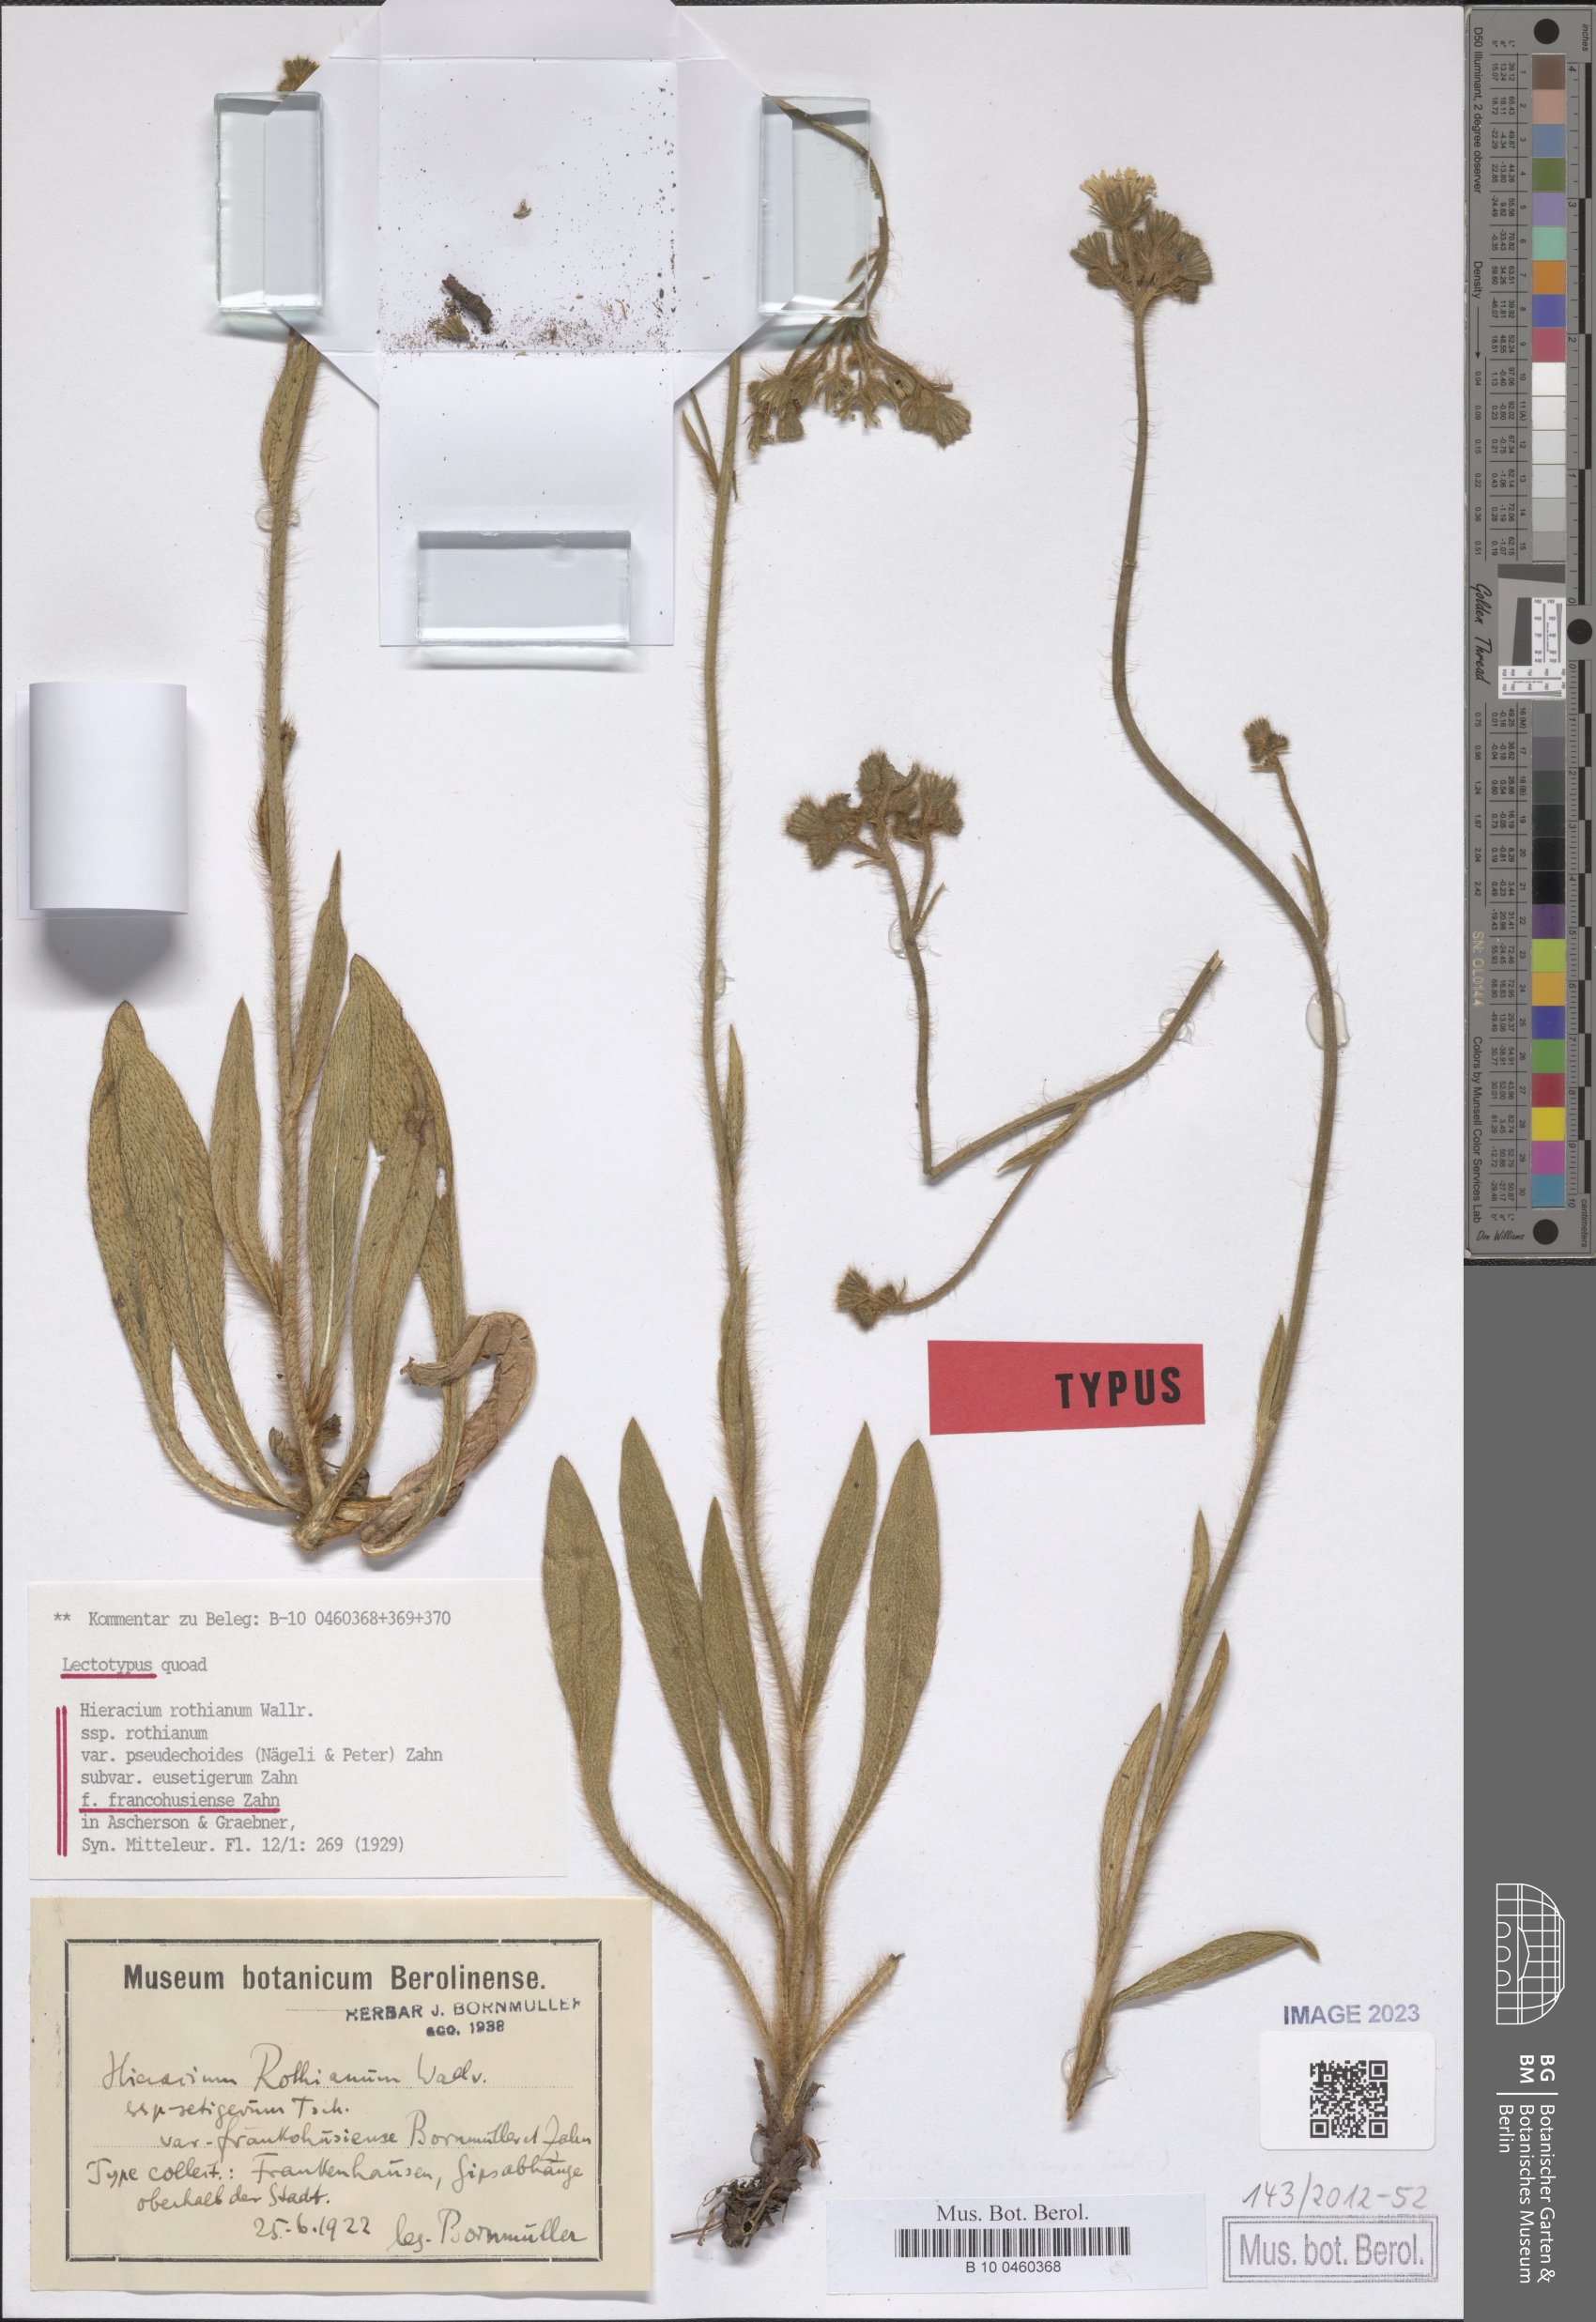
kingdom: Plantae
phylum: Tracheophyta
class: Magnoliopsida
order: Asterales
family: Asteraceae
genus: Hieracium
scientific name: Hieracium rothianum
